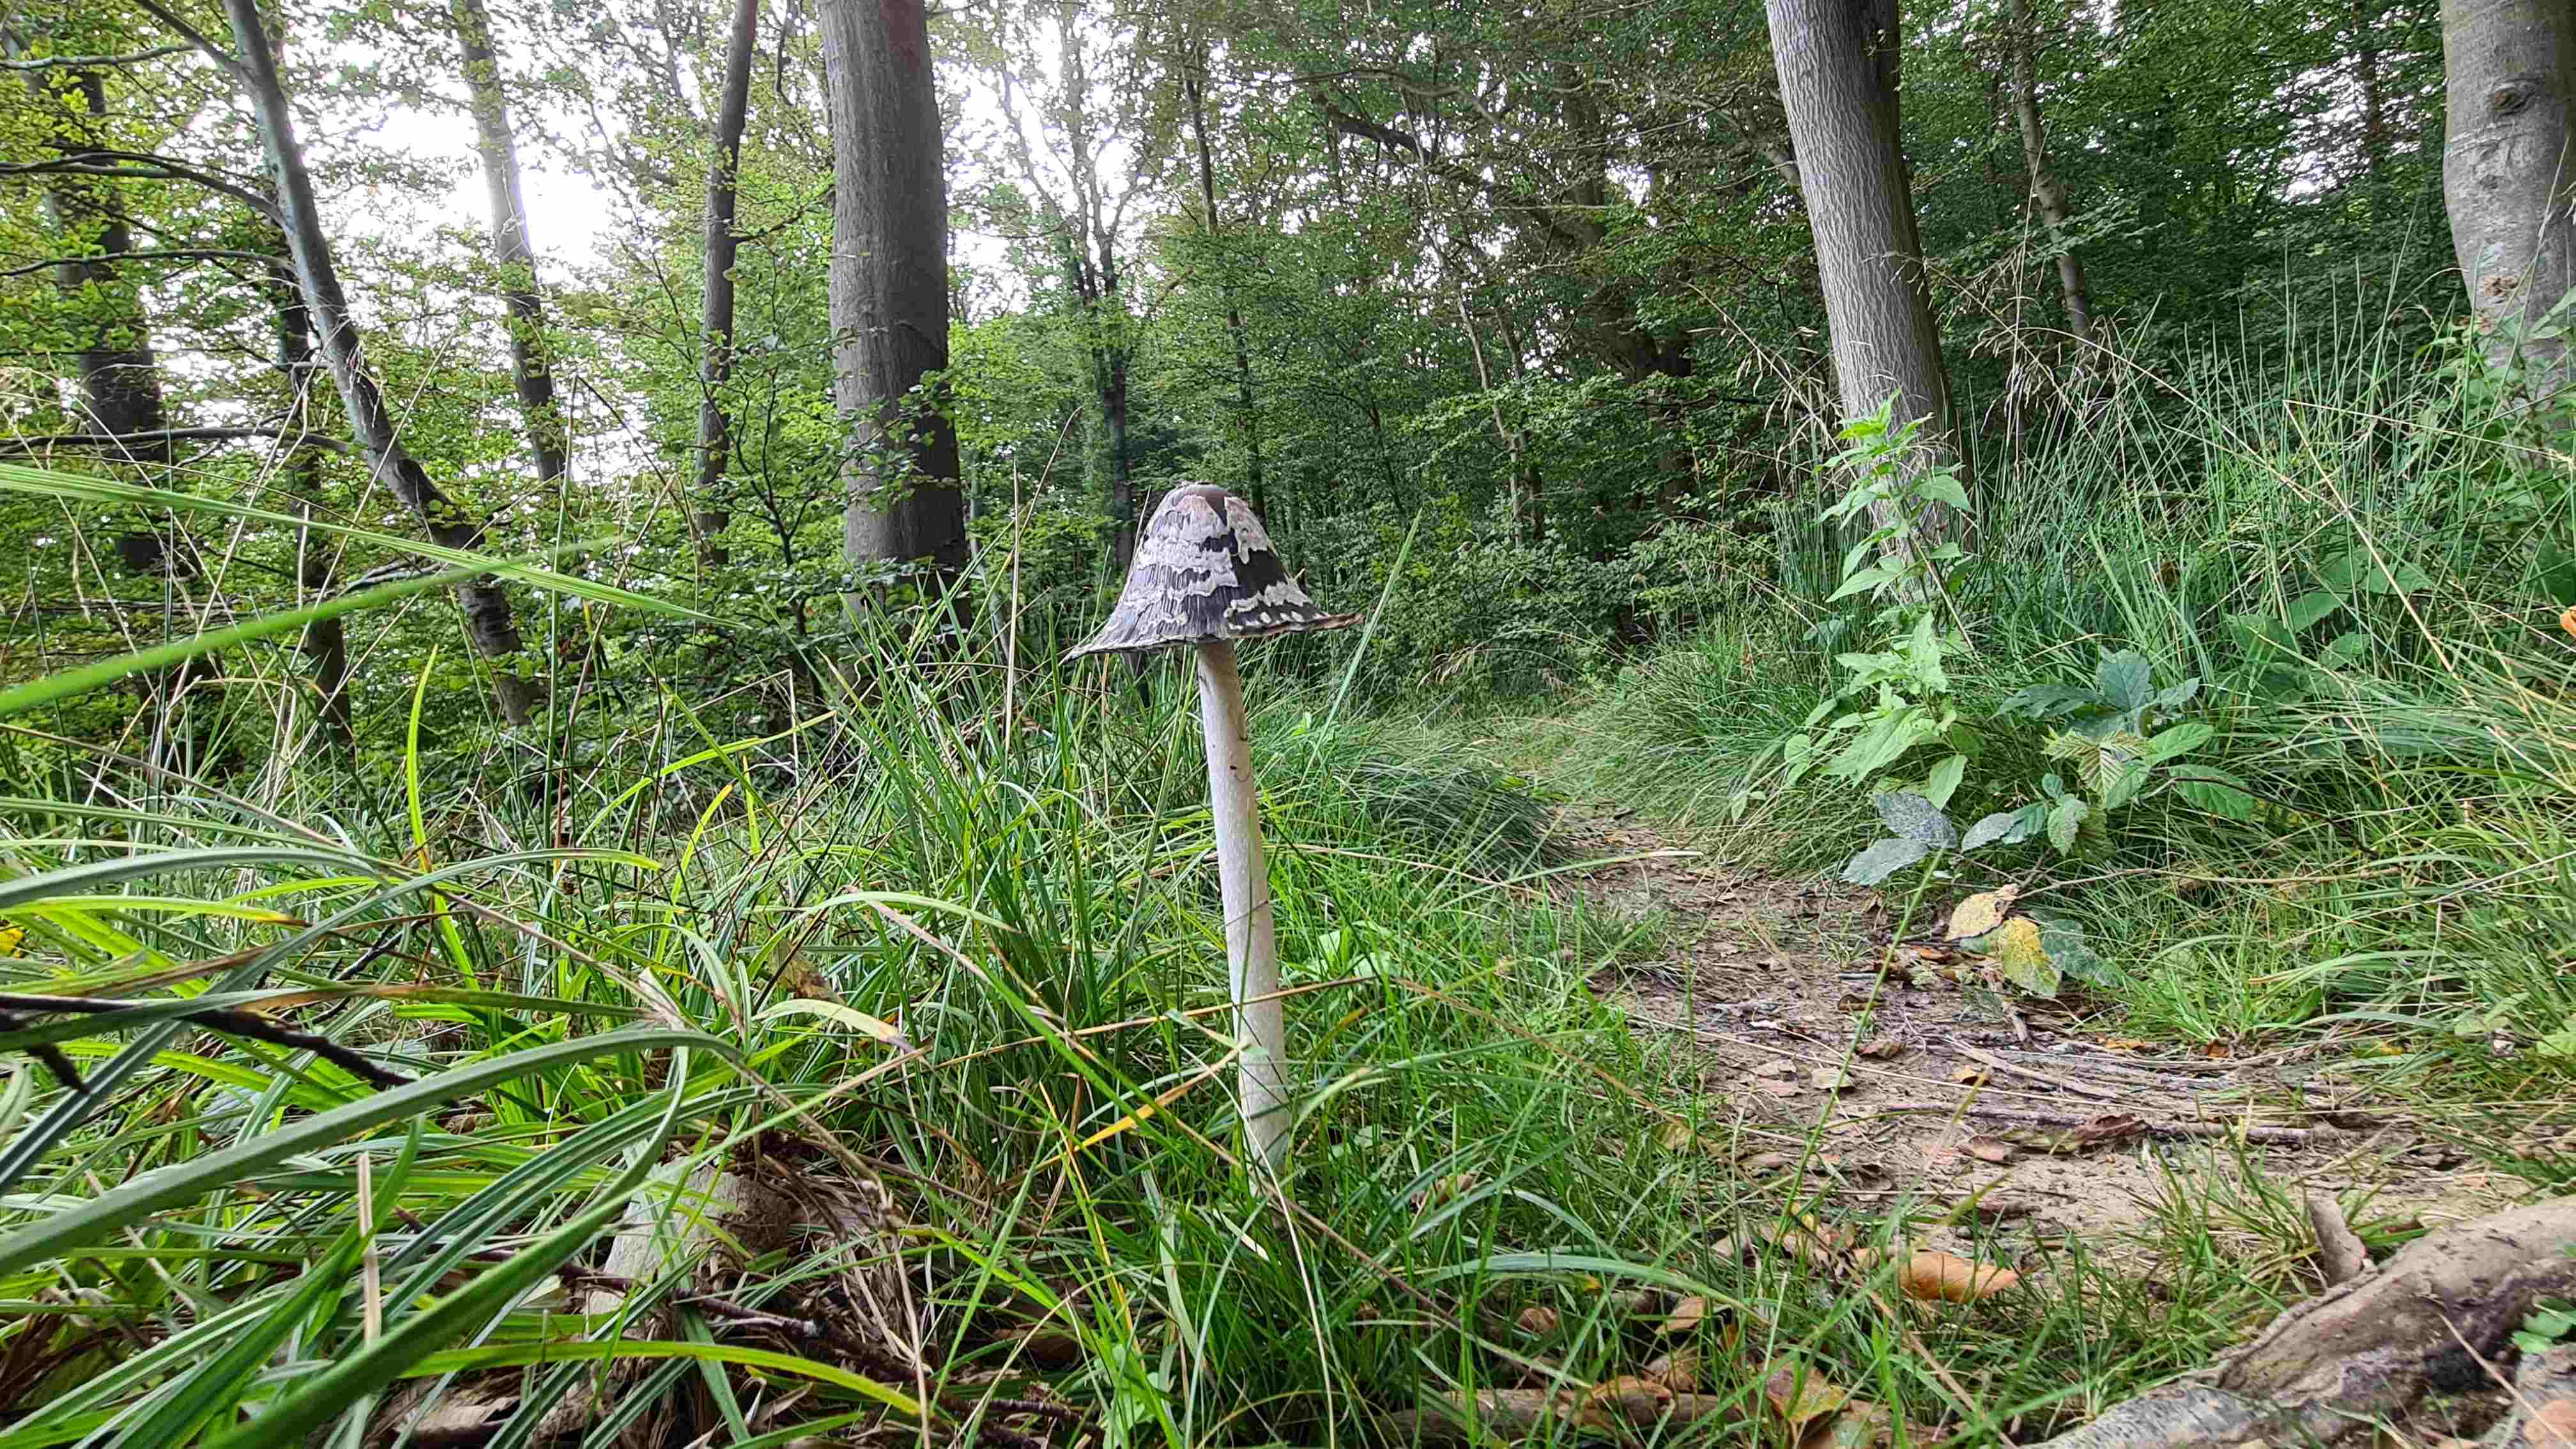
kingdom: Fungi
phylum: Basidiomycota
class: Agaricomycetes
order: Agaricales
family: Psathyrellaceae
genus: Coprinopsis
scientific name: Coprinopsis picacea
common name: skade-blækhat
